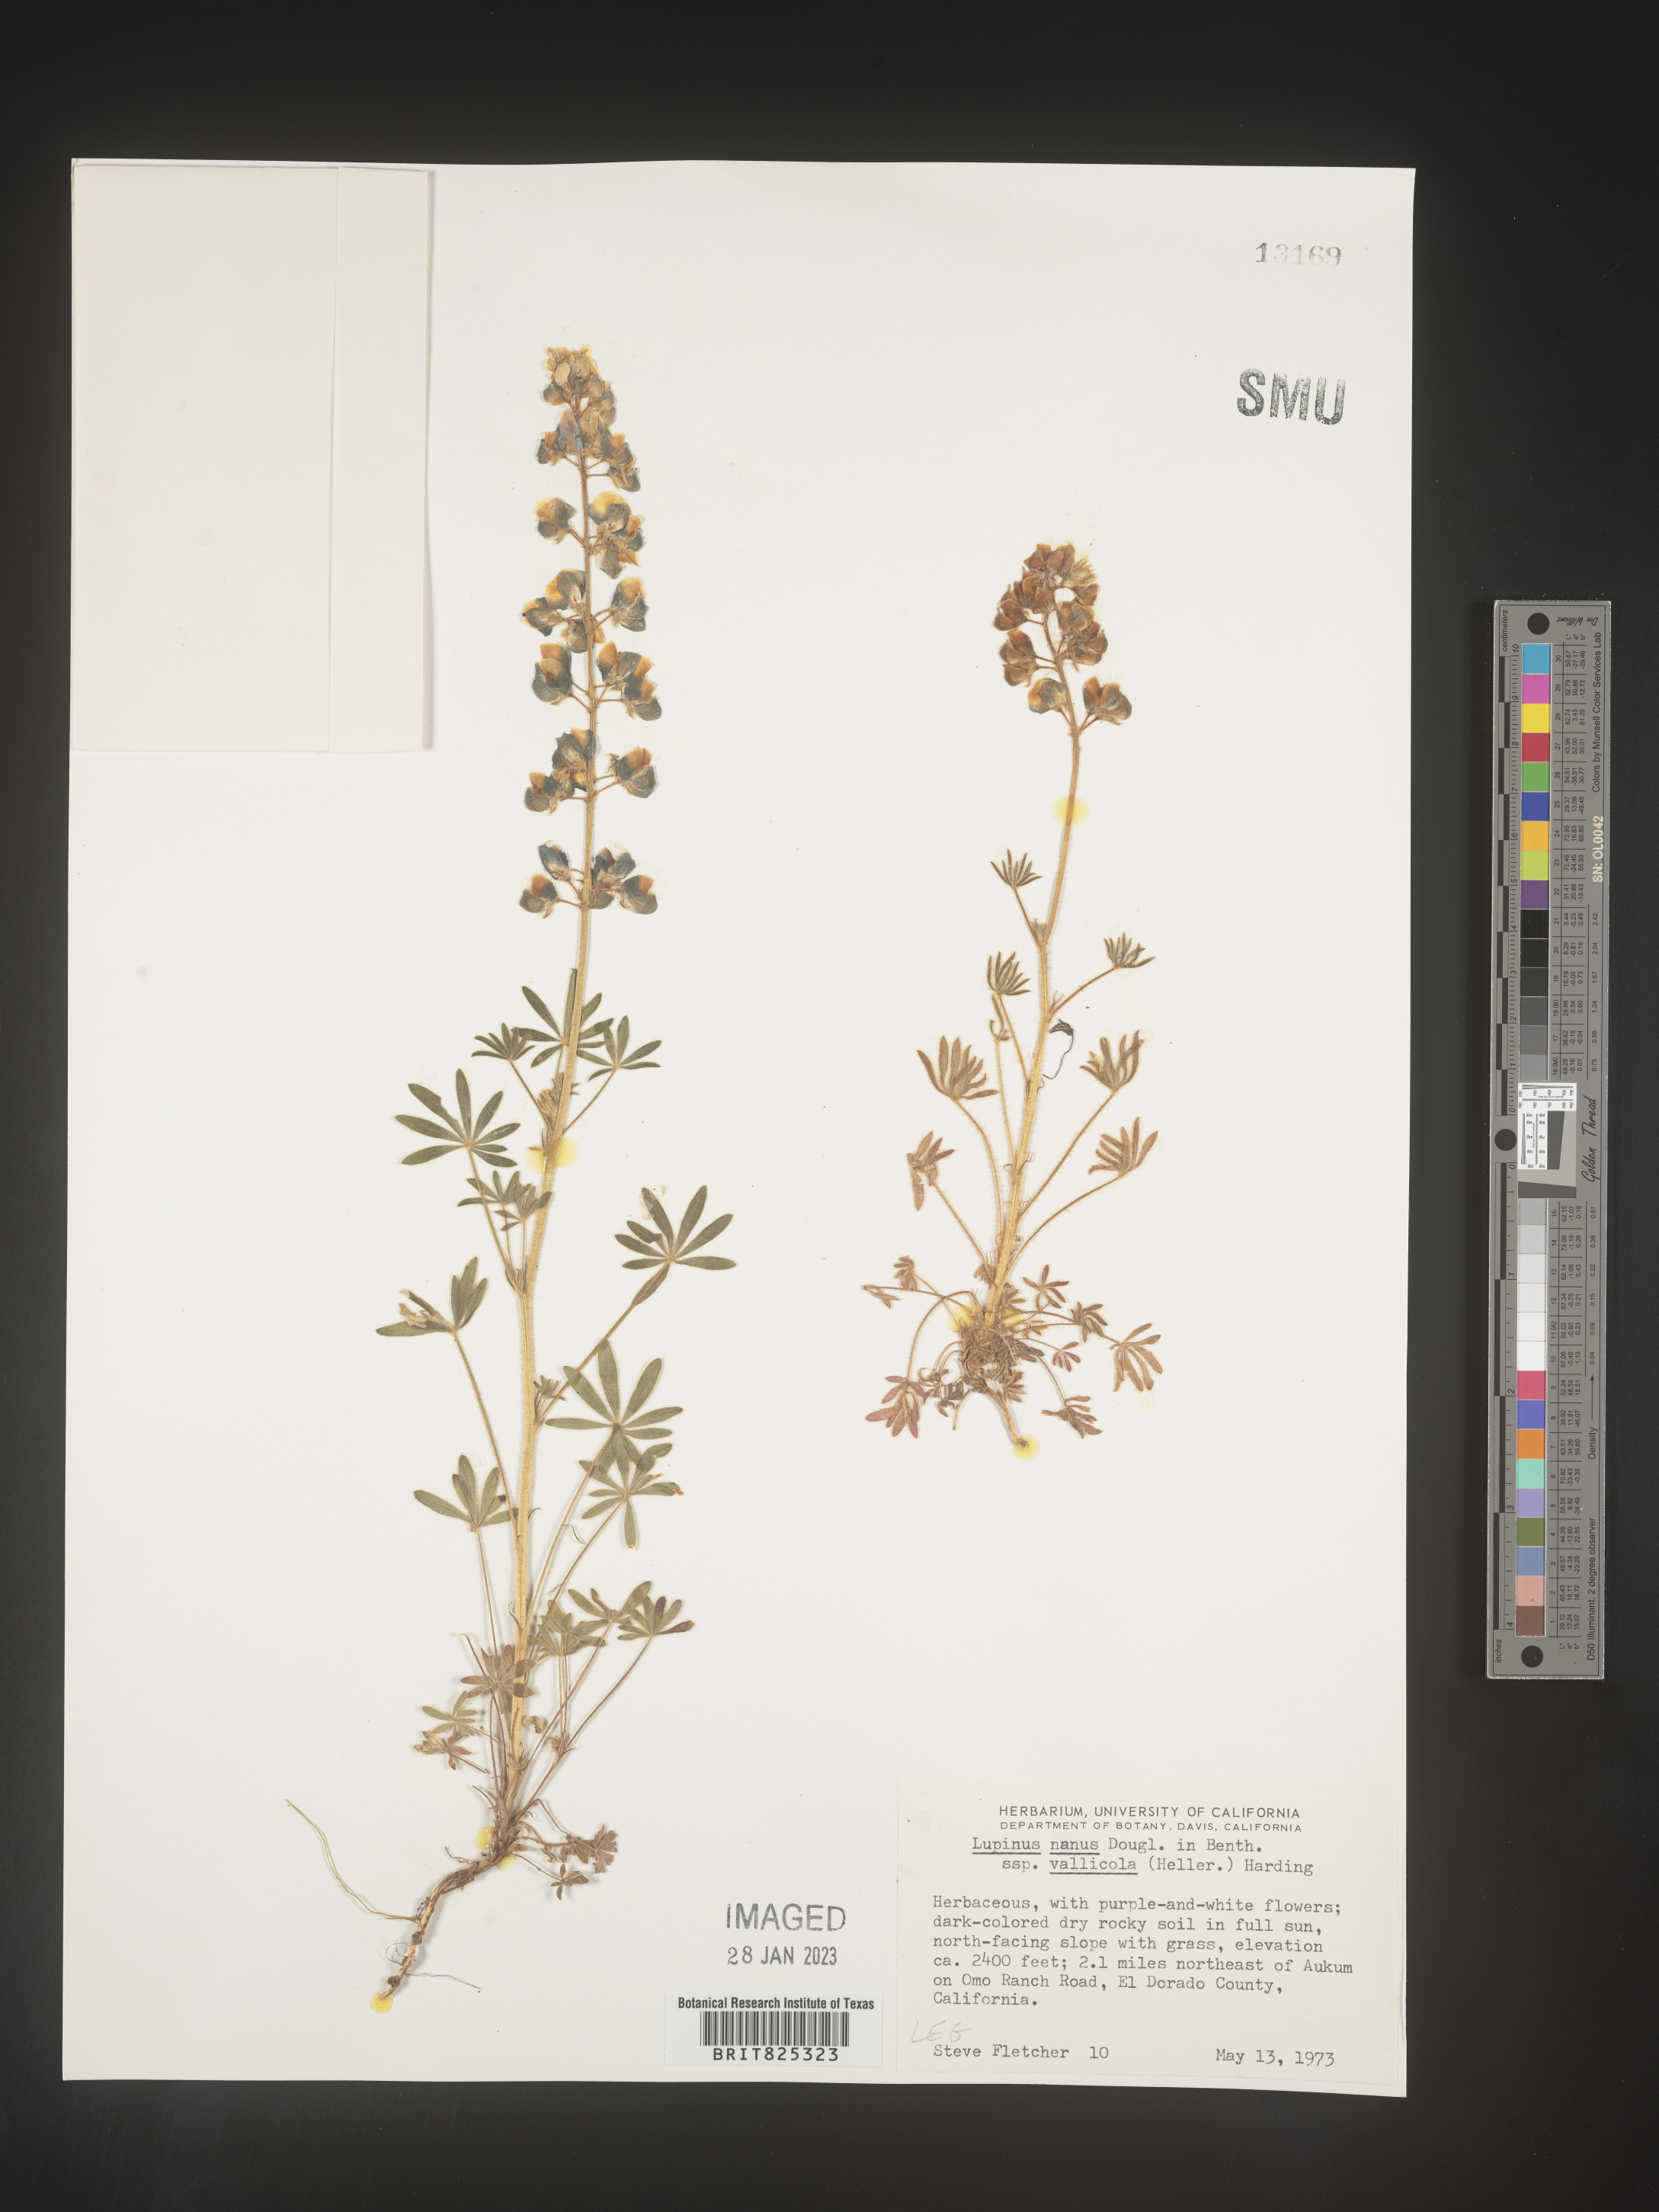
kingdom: Plantae
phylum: Tracheophyta
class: Magnoliopsida
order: Fabales
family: Fabaceae
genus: Lupinus
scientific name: Lupinus nanus
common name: Orean blue lupin
